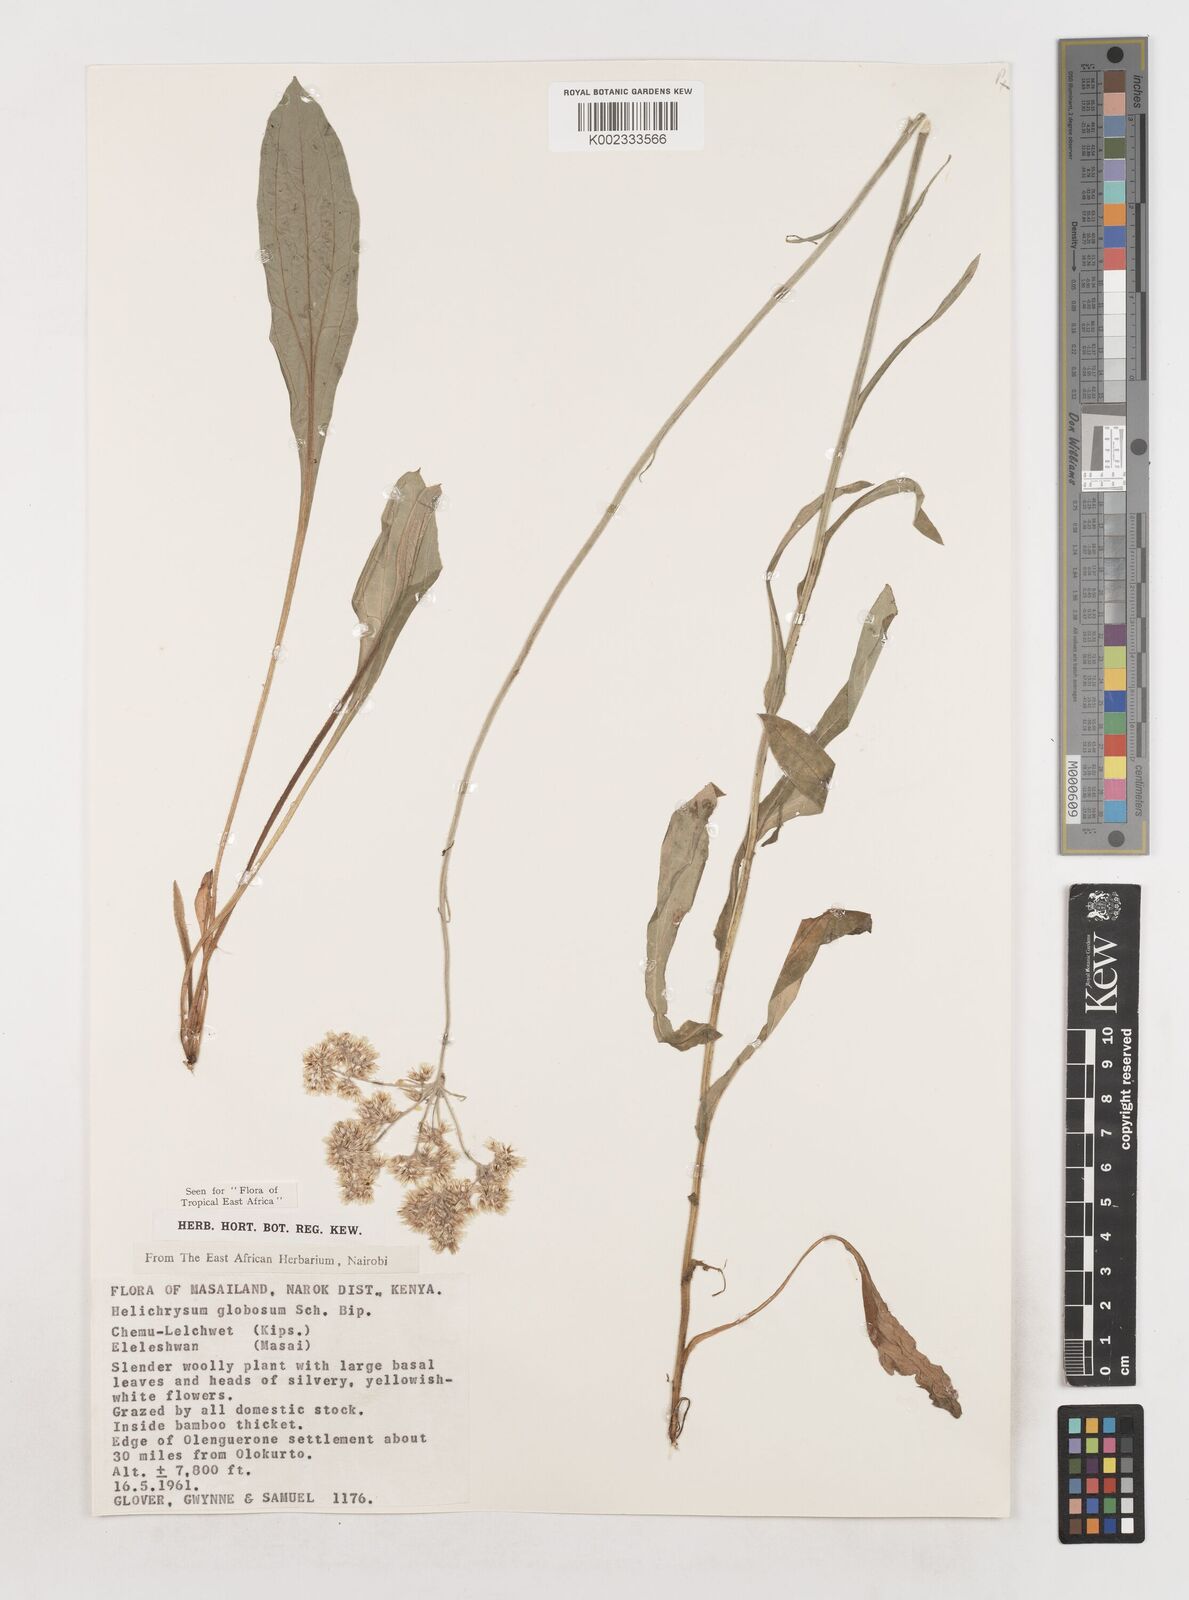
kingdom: Plantae
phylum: Tracheophyta
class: Magnoliopsida
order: Asterales
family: Asteraceae
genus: Helichrysum
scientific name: Helichrysum globosum
